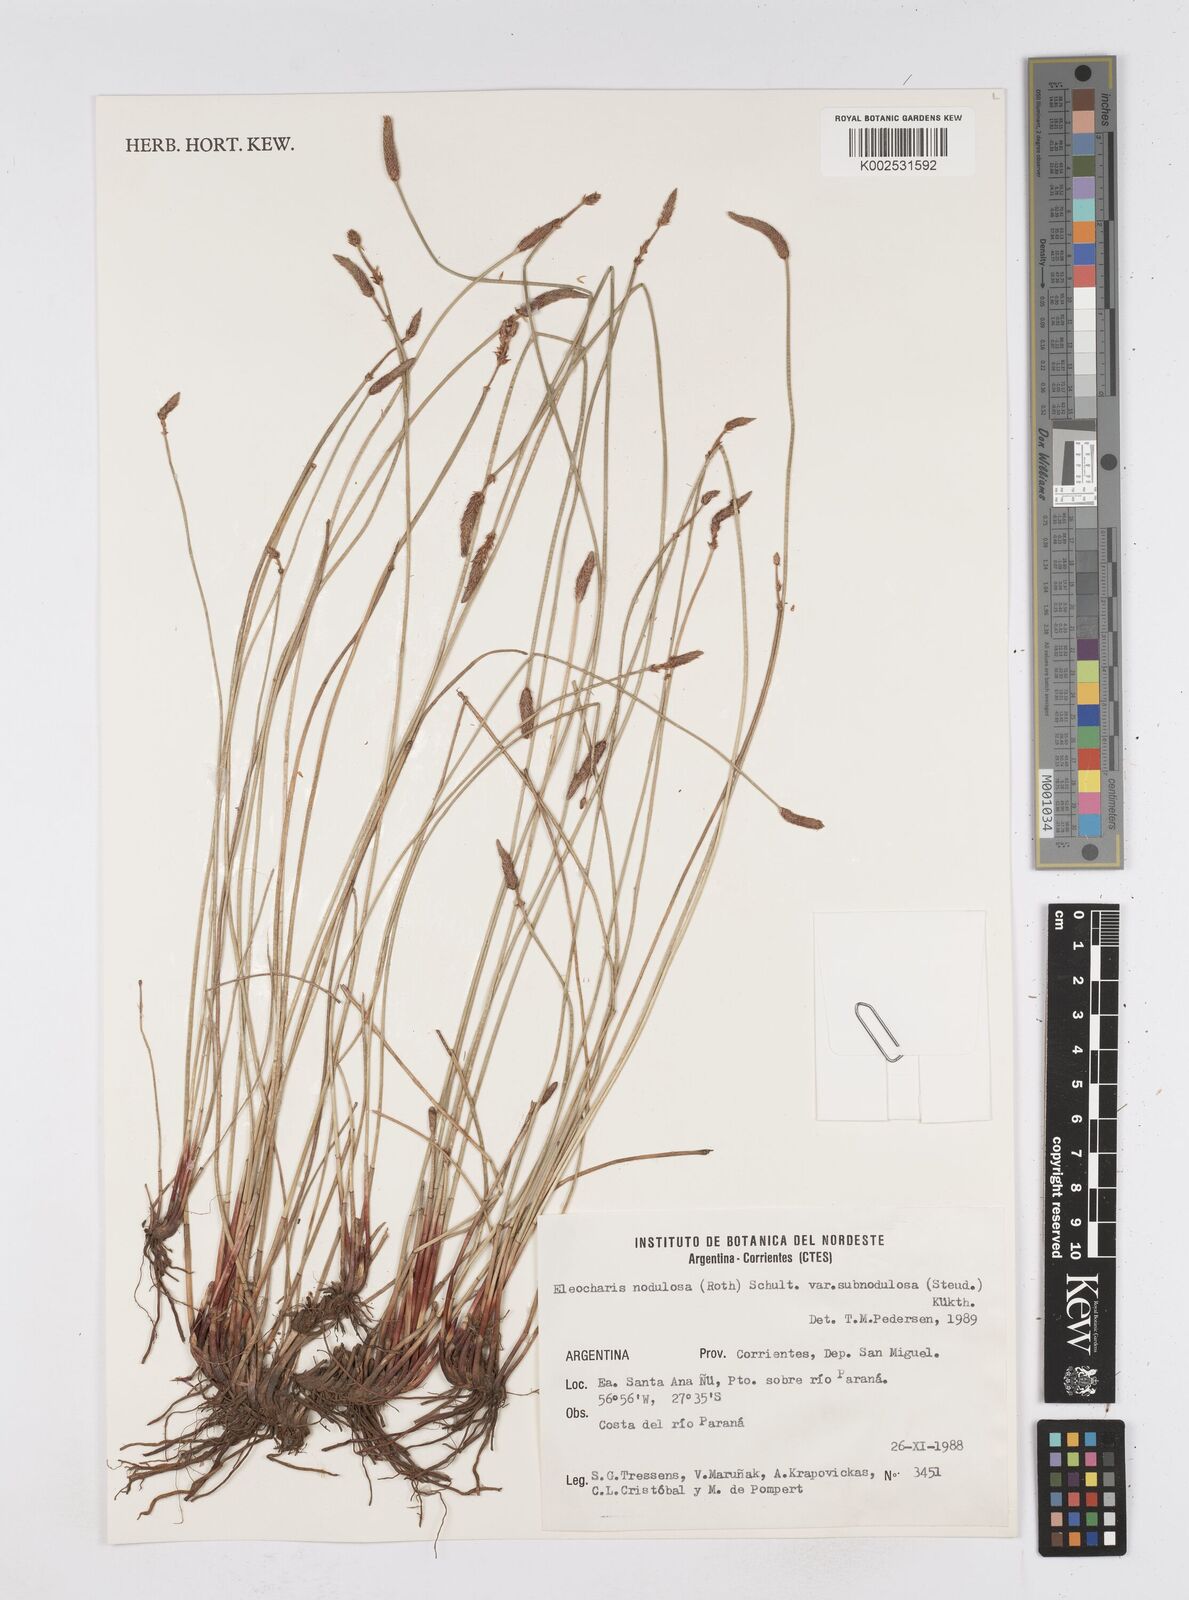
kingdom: Plantae
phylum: Tracheophyta
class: Liliopsida
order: Poales
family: Cyperaceae
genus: Eleocharis
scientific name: Eleocharis montana
